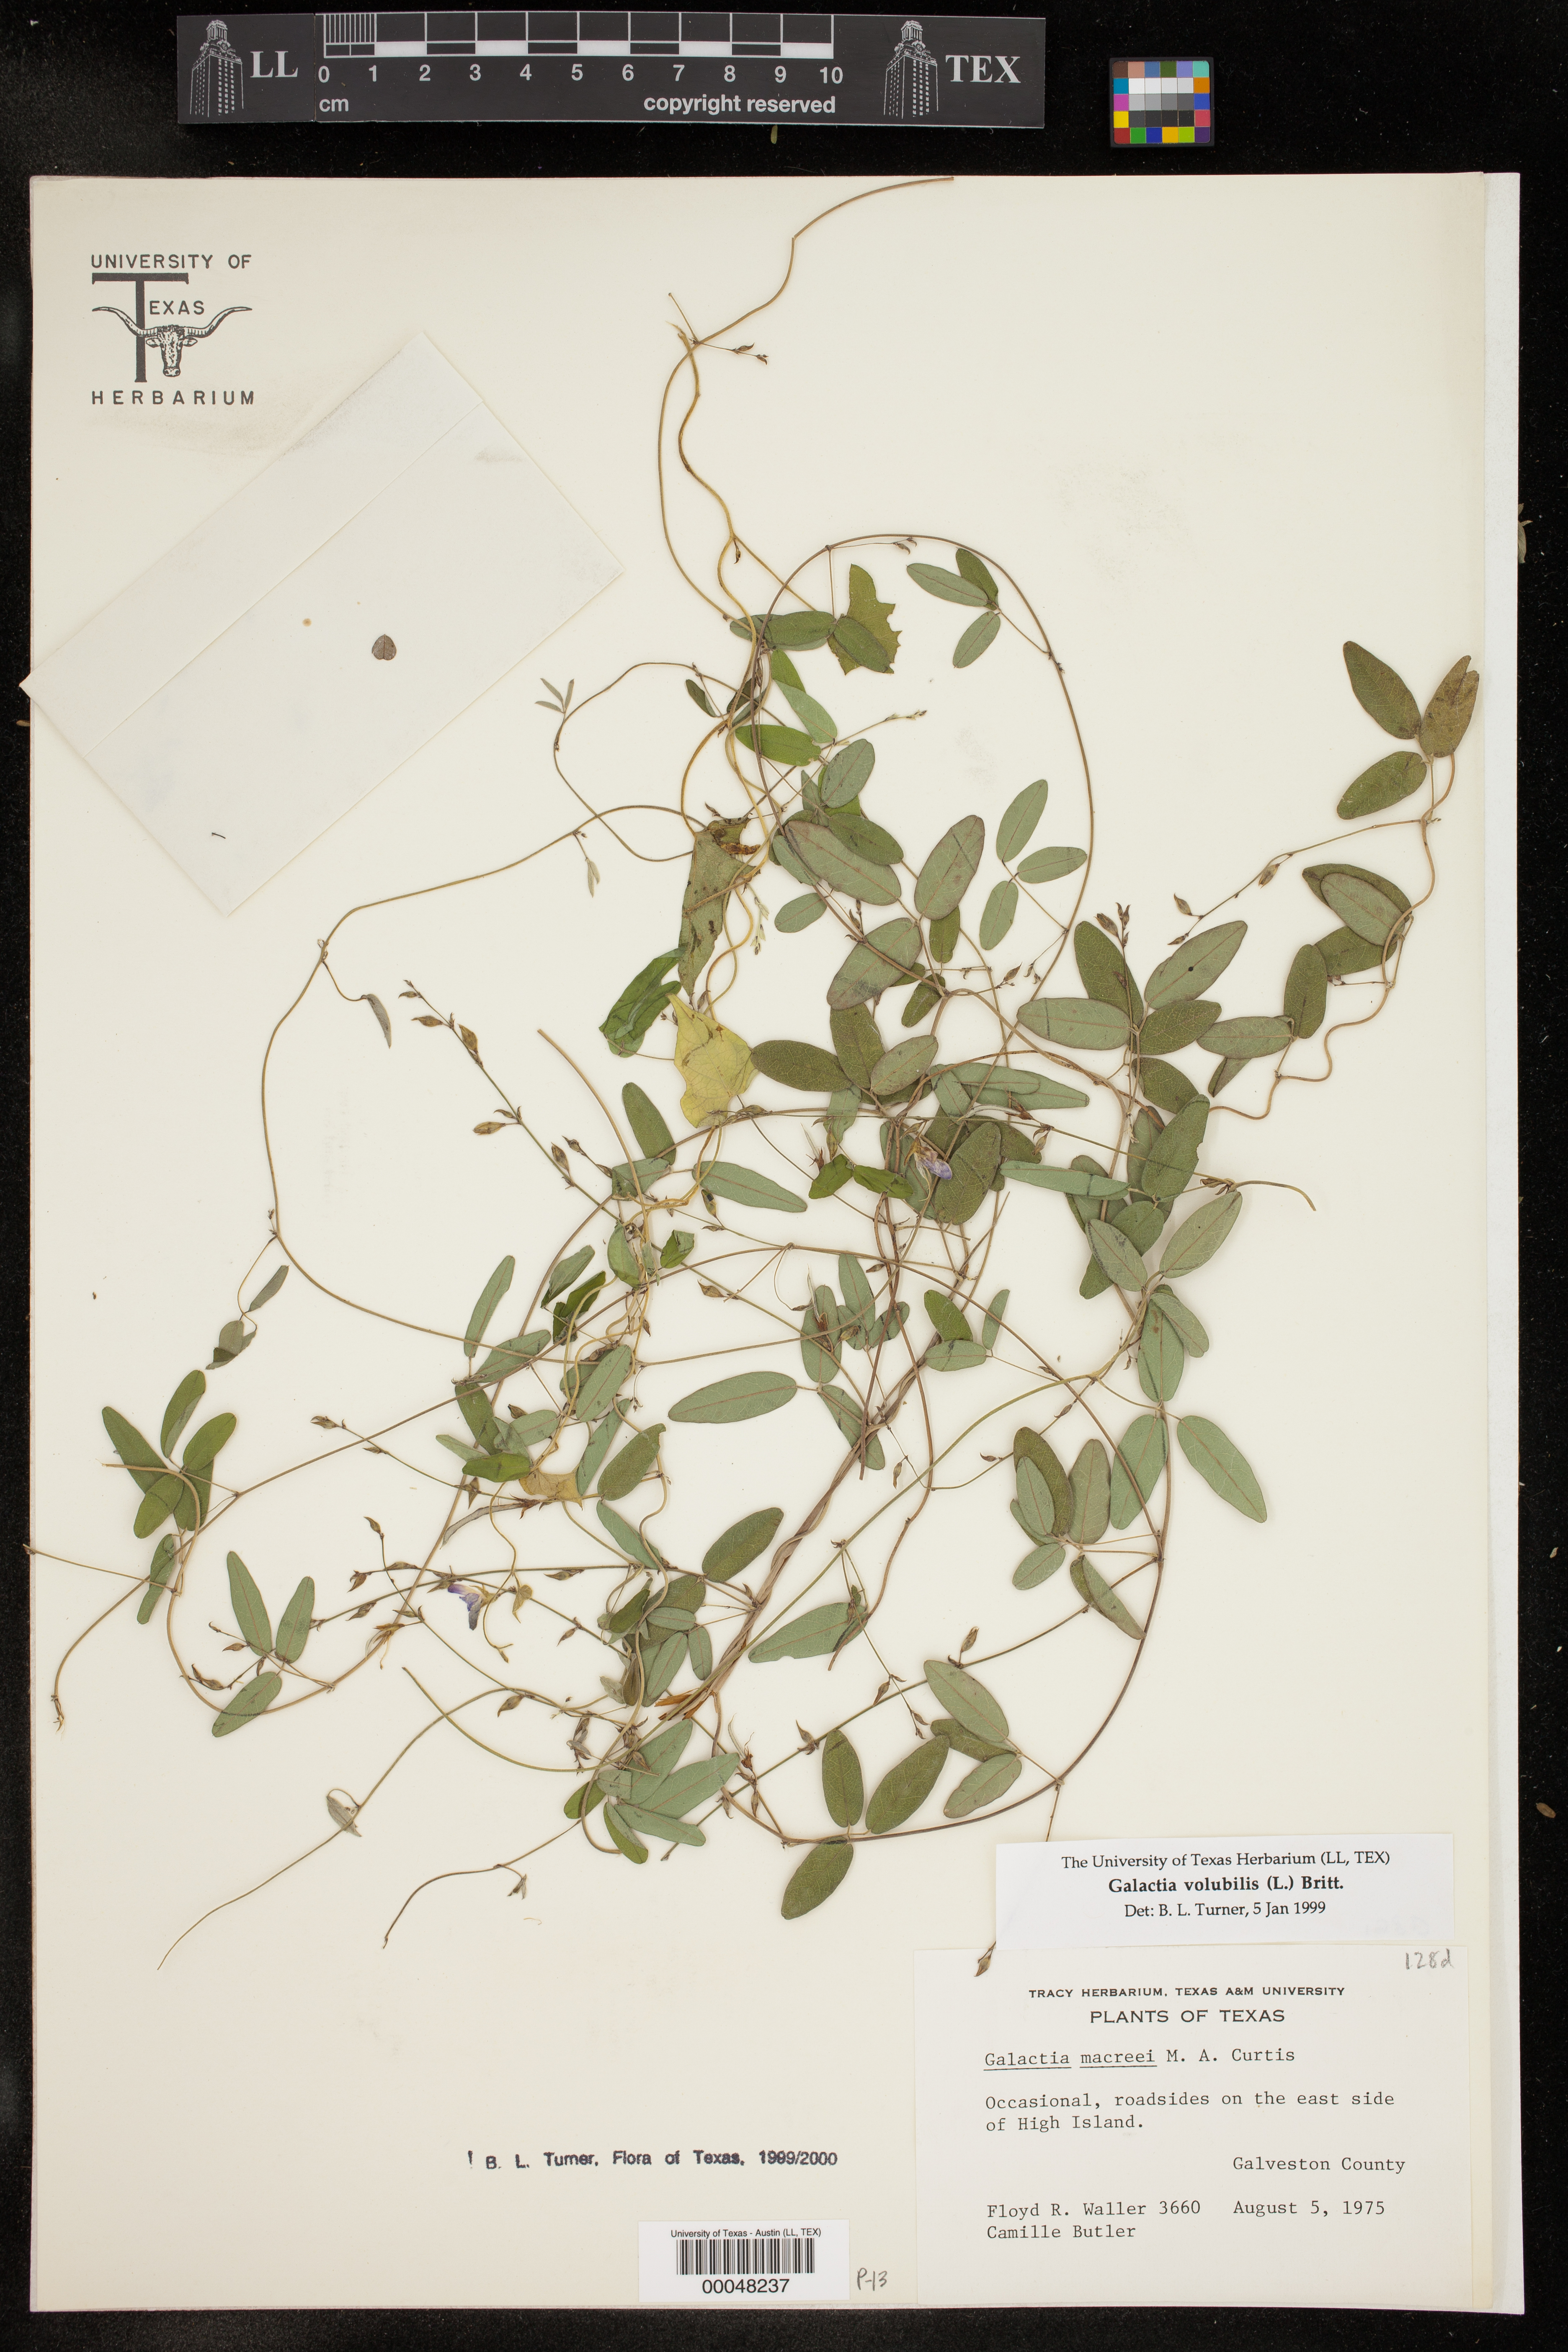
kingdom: Plantae
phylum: Tracheophyta
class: Magnoliopsida
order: Fabales
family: Fabaceae
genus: Galactia
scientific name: Galactia volubilis
